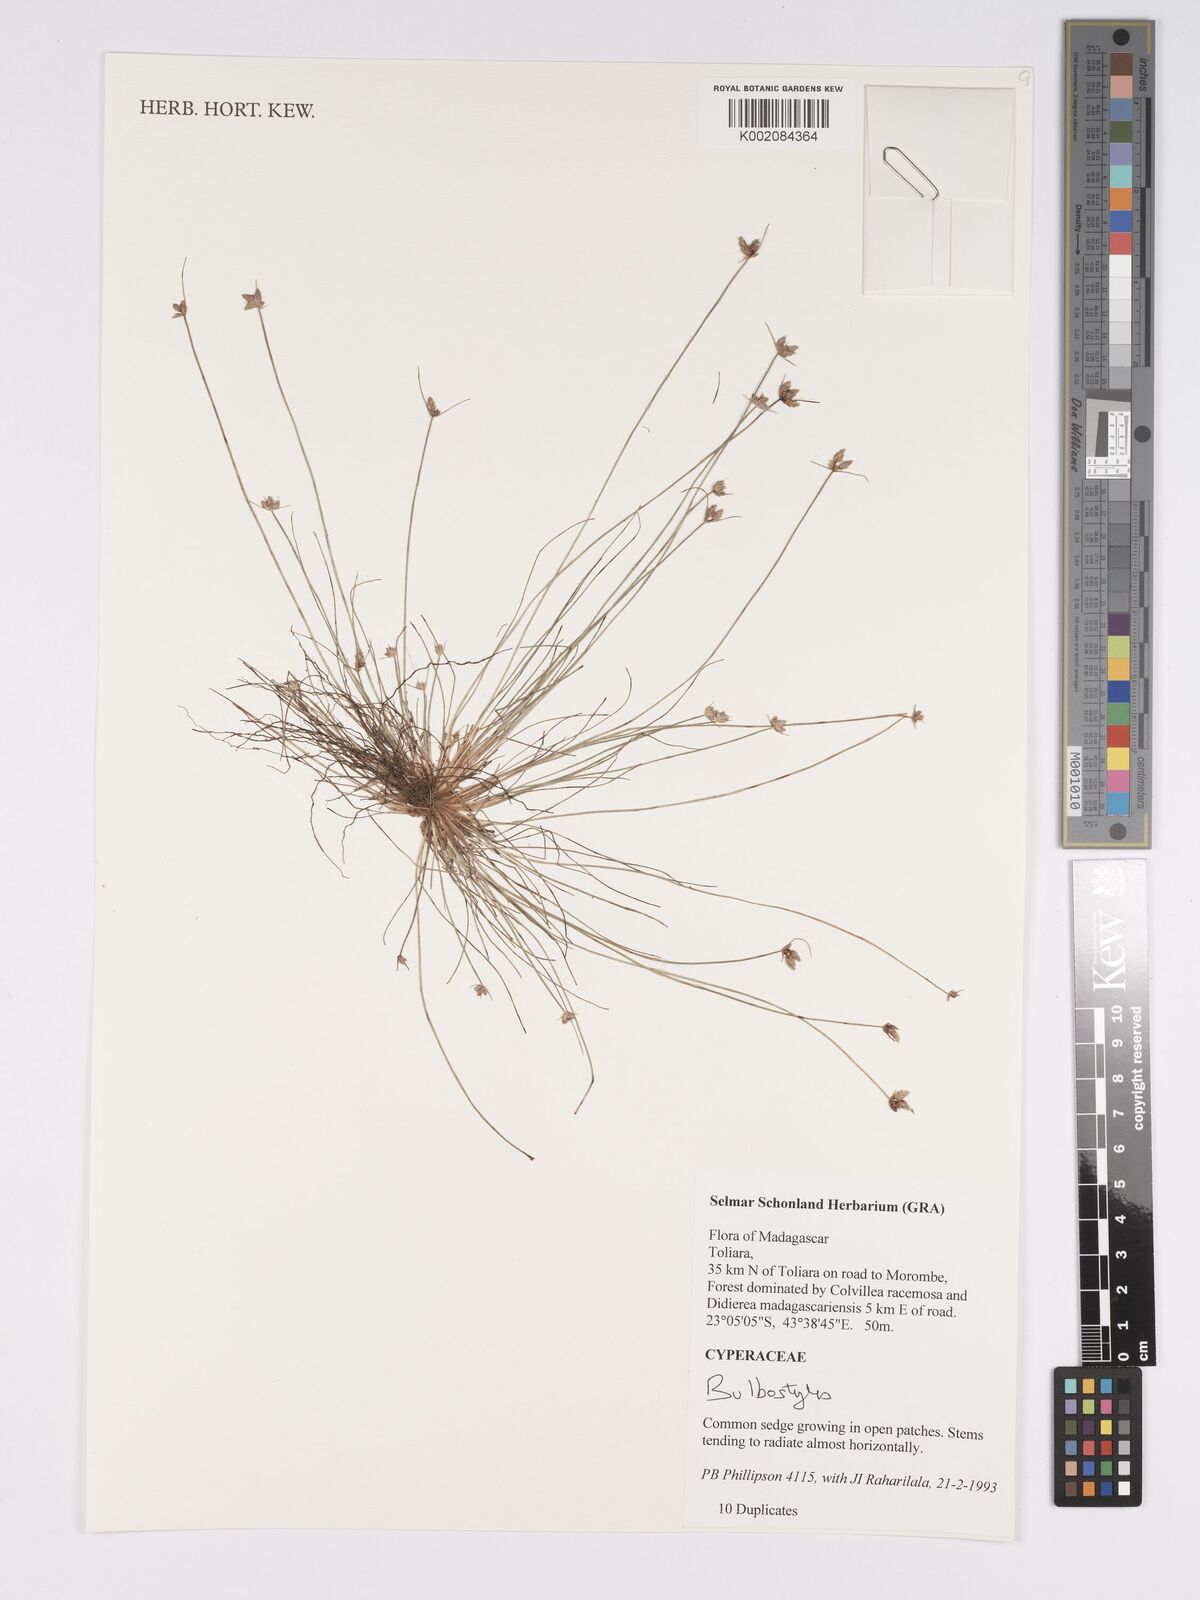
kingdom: Plantae
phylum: Tracheophyta
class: Liliopsida
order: Poales
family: Cyperaceae
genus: Bulbostylis
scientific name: Bulbostylis
